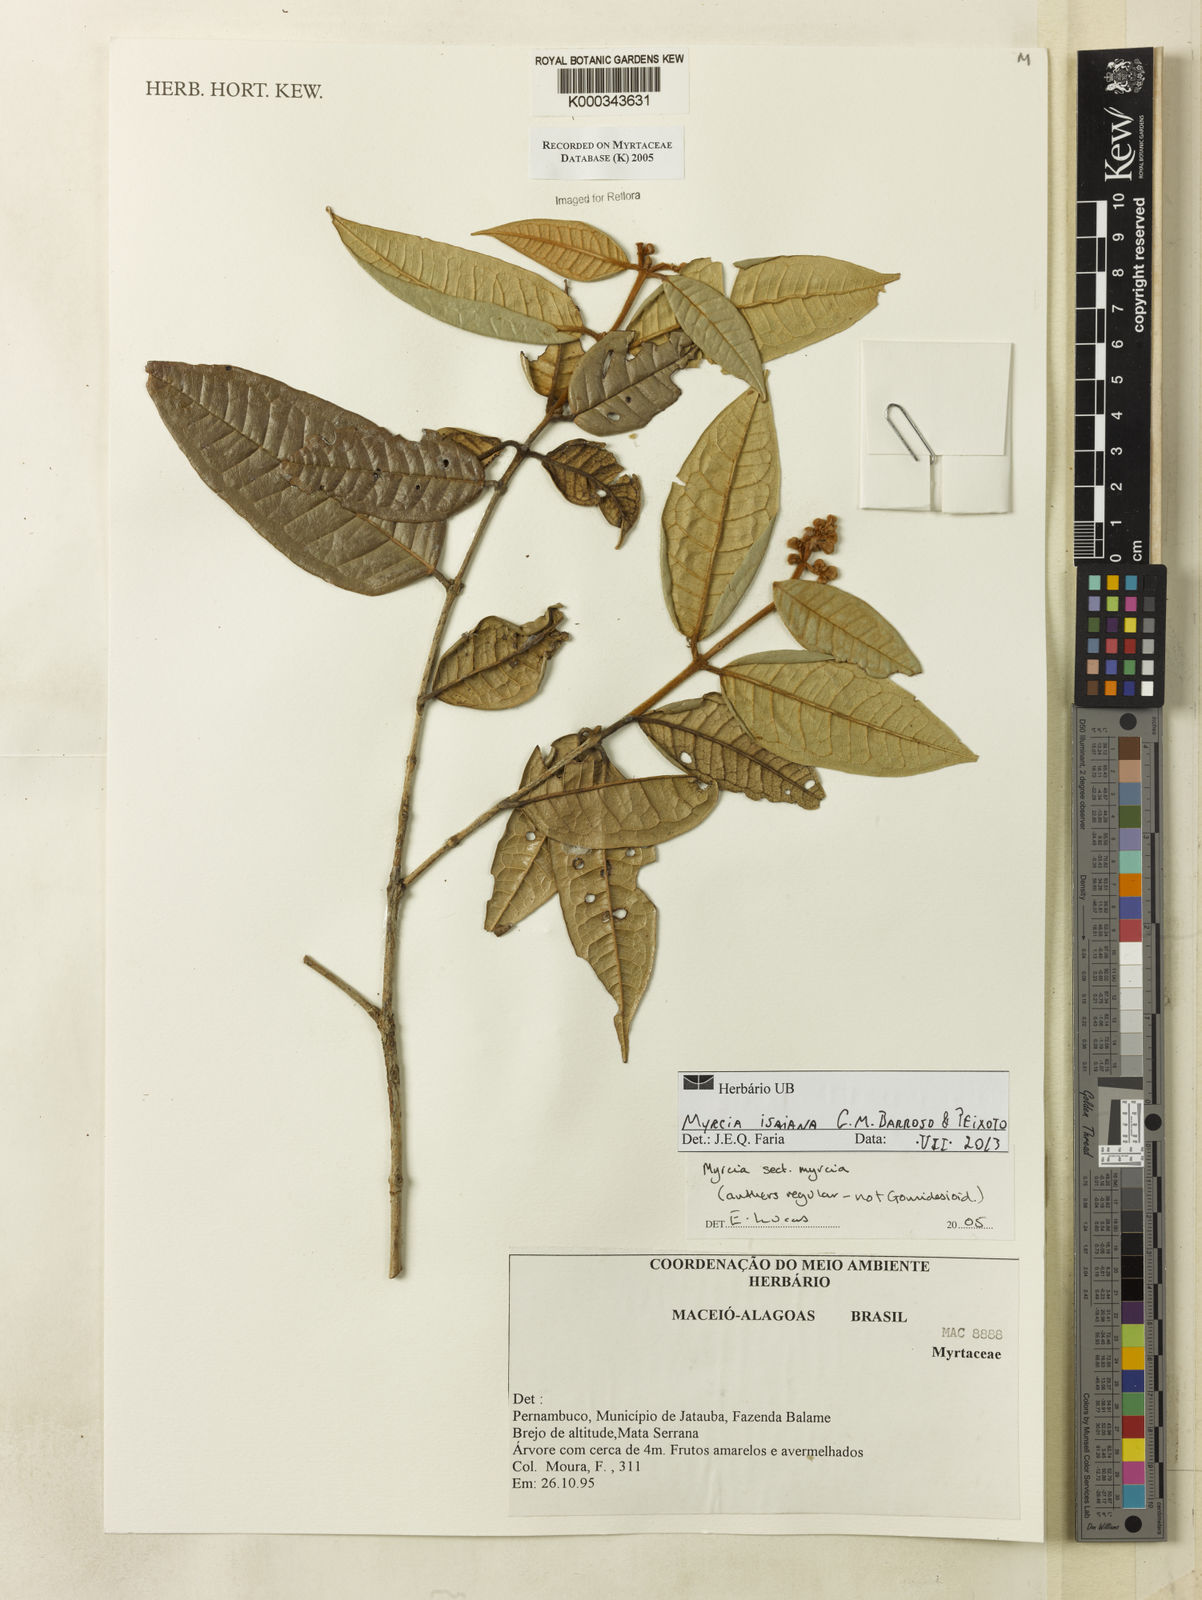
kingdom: Plantae
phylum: Tracheophyta
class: Magnoliopsida
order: Myrtales
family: Myrtaceae
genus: Myrcia
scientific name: Myrcia
